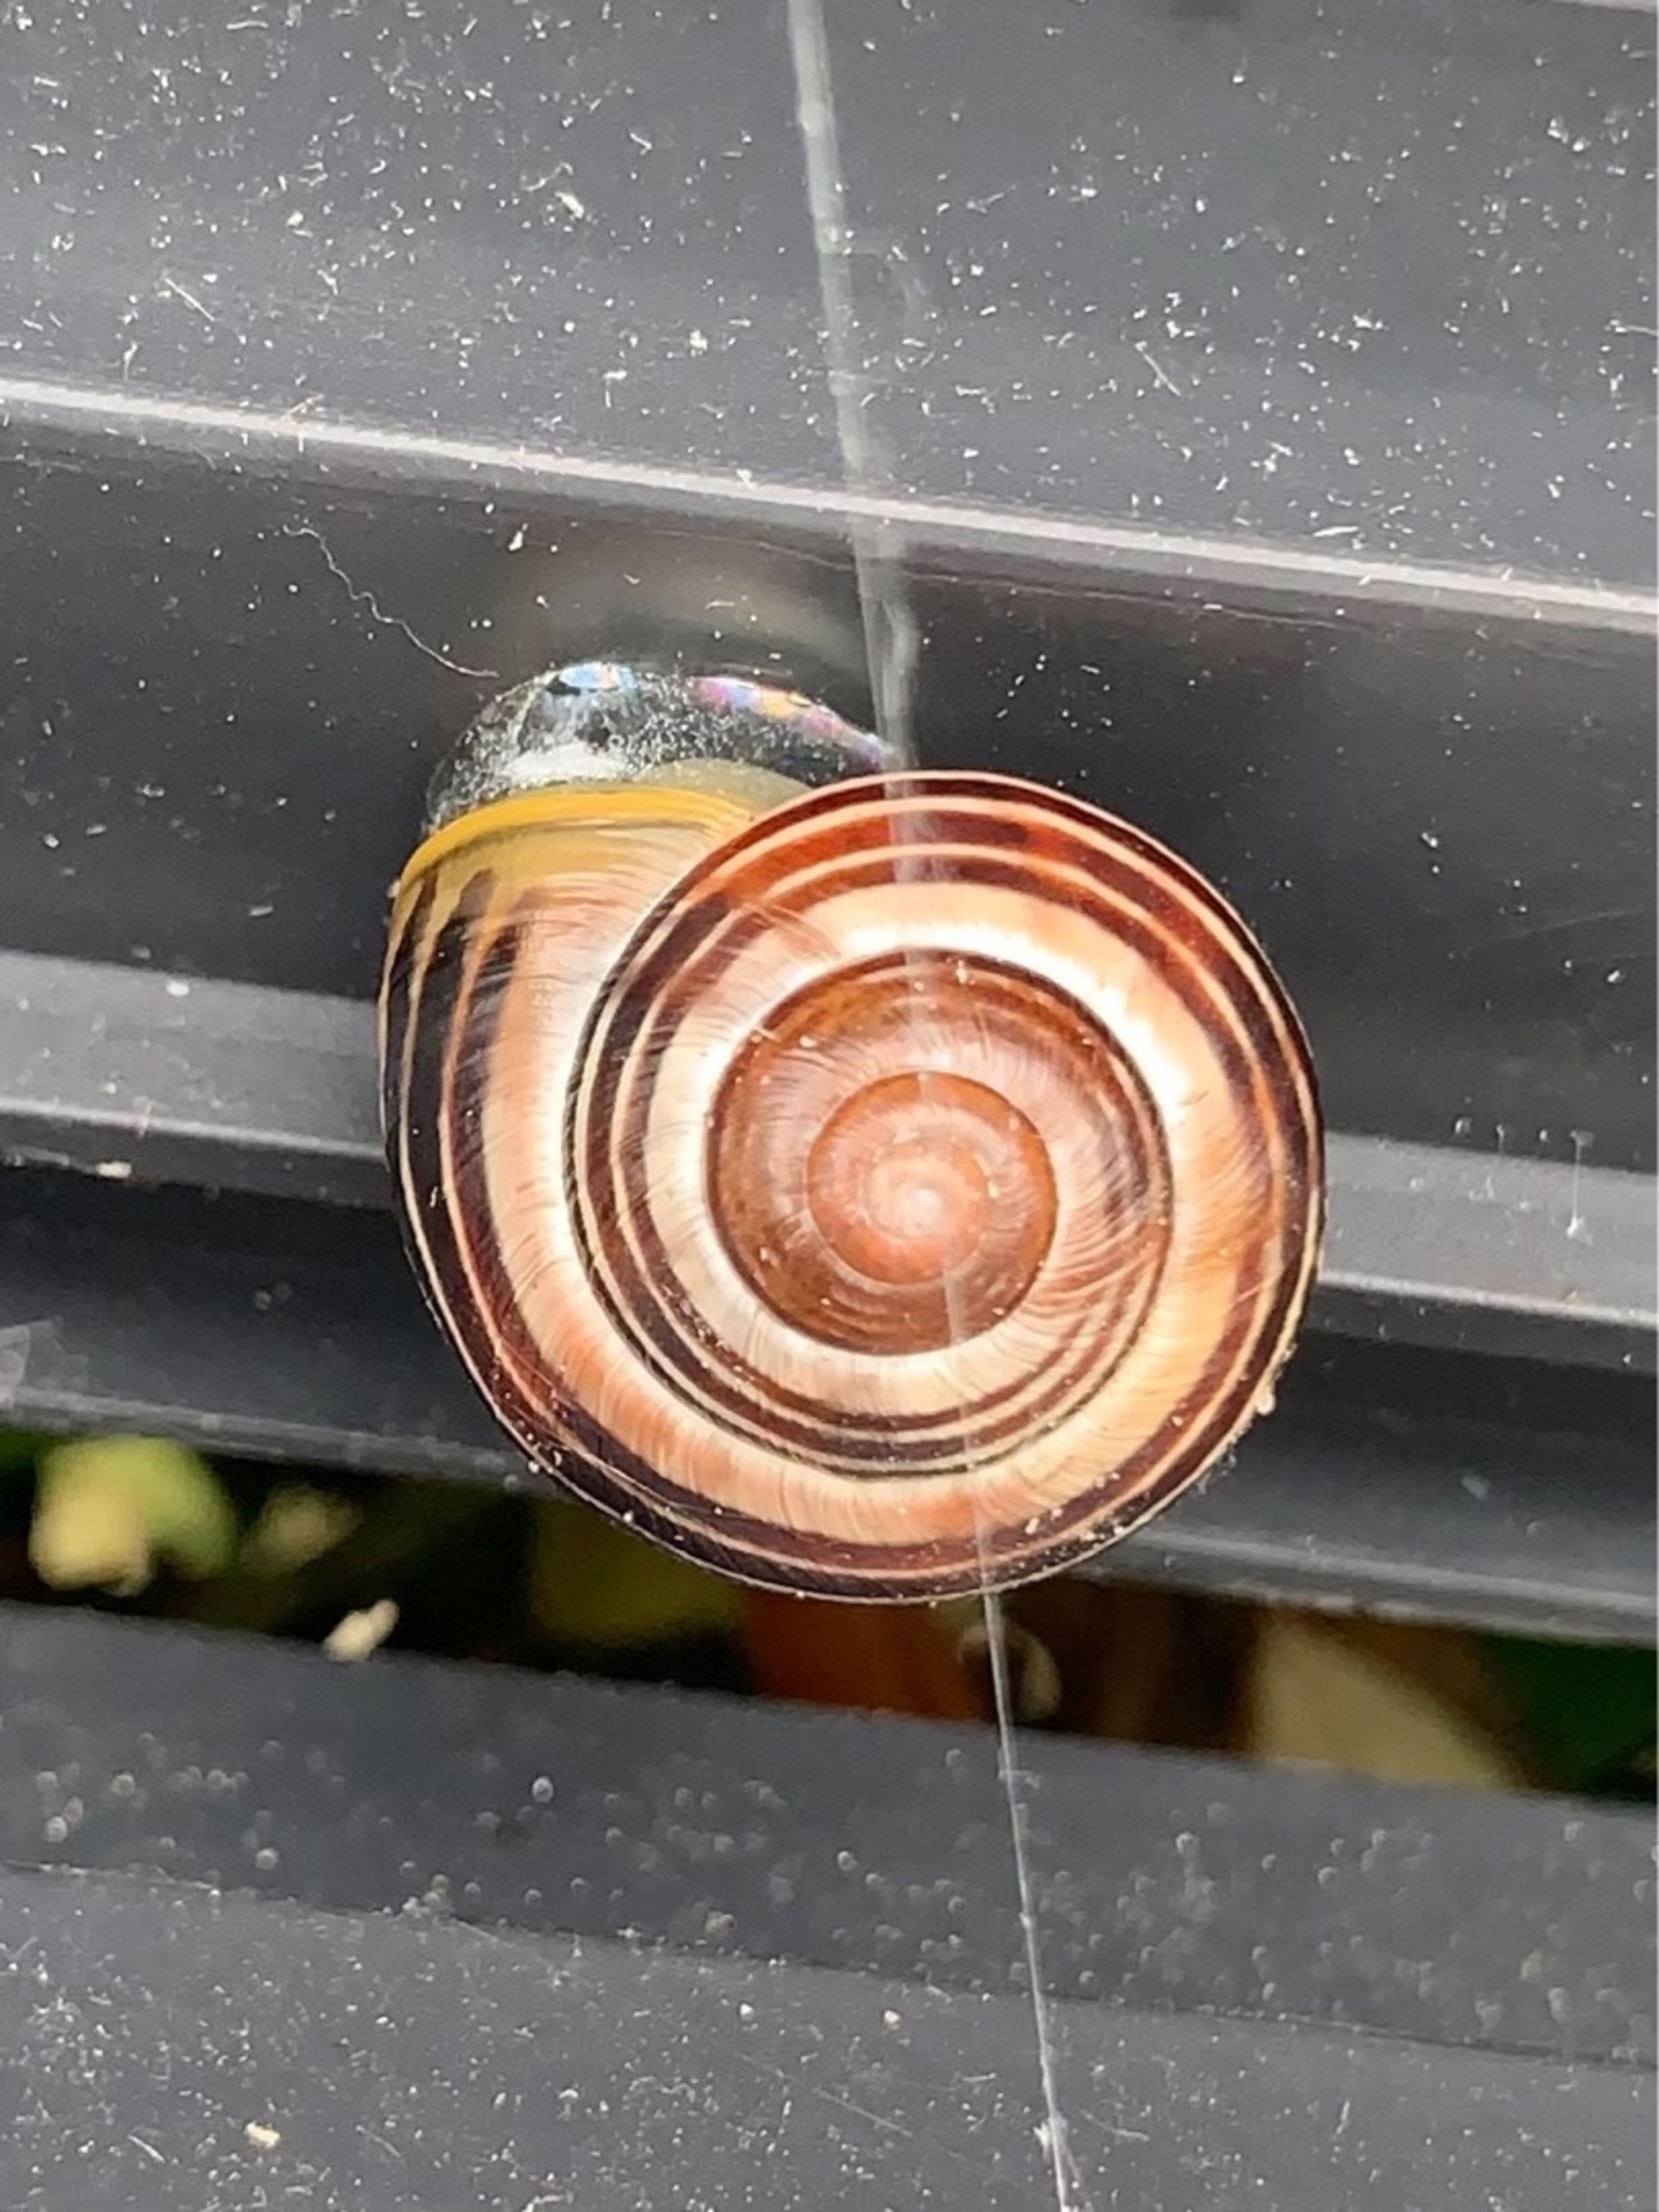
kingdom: Animalia
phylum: Mollusca
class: Gastropoda
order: Stylommatophora
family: Helicidae
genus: Cepaea
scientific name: Cepaea hortensis
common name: Havesnegl
